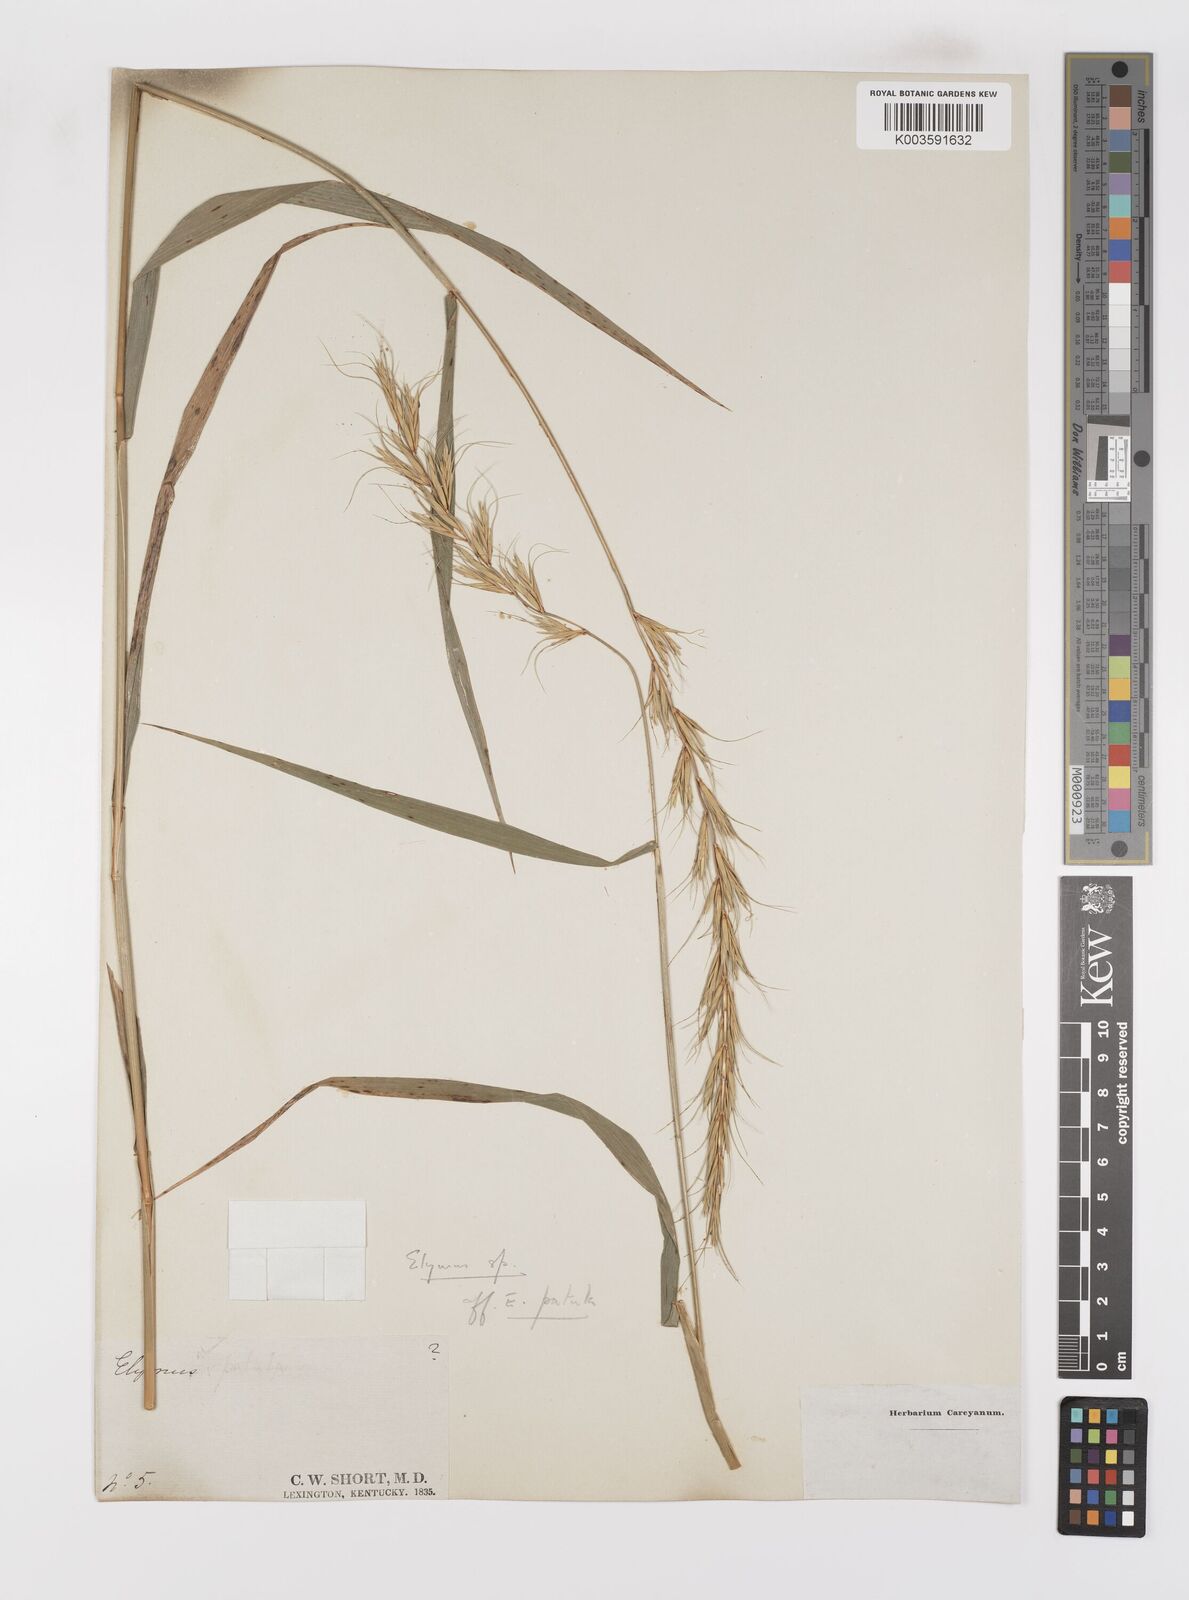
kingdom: Plantae
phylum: Tracheophyta
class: Liliopsida
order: Poales
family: Poaceae
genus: Leymus
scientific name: Leymus
